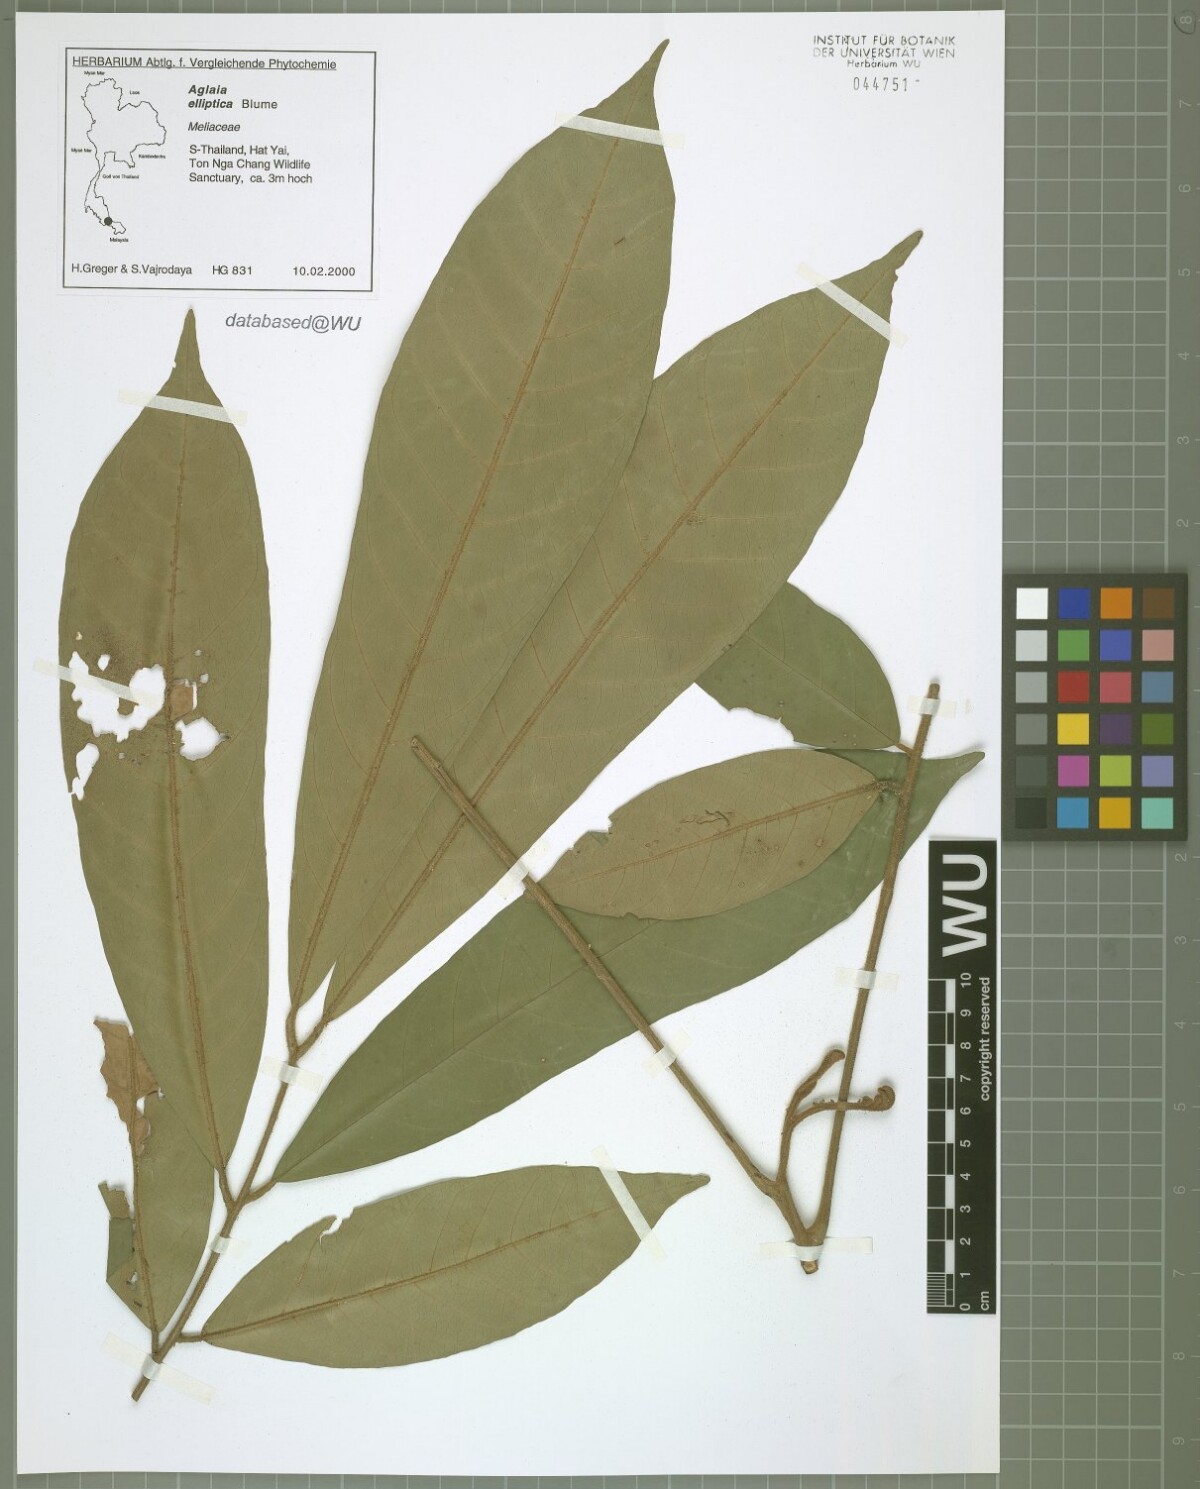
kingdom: Plantae
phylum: Tracheophyta
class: Magnoliopsida
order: Sapindales
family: Meliaceae
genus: Aglaia
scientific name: Aglaia elliptica
